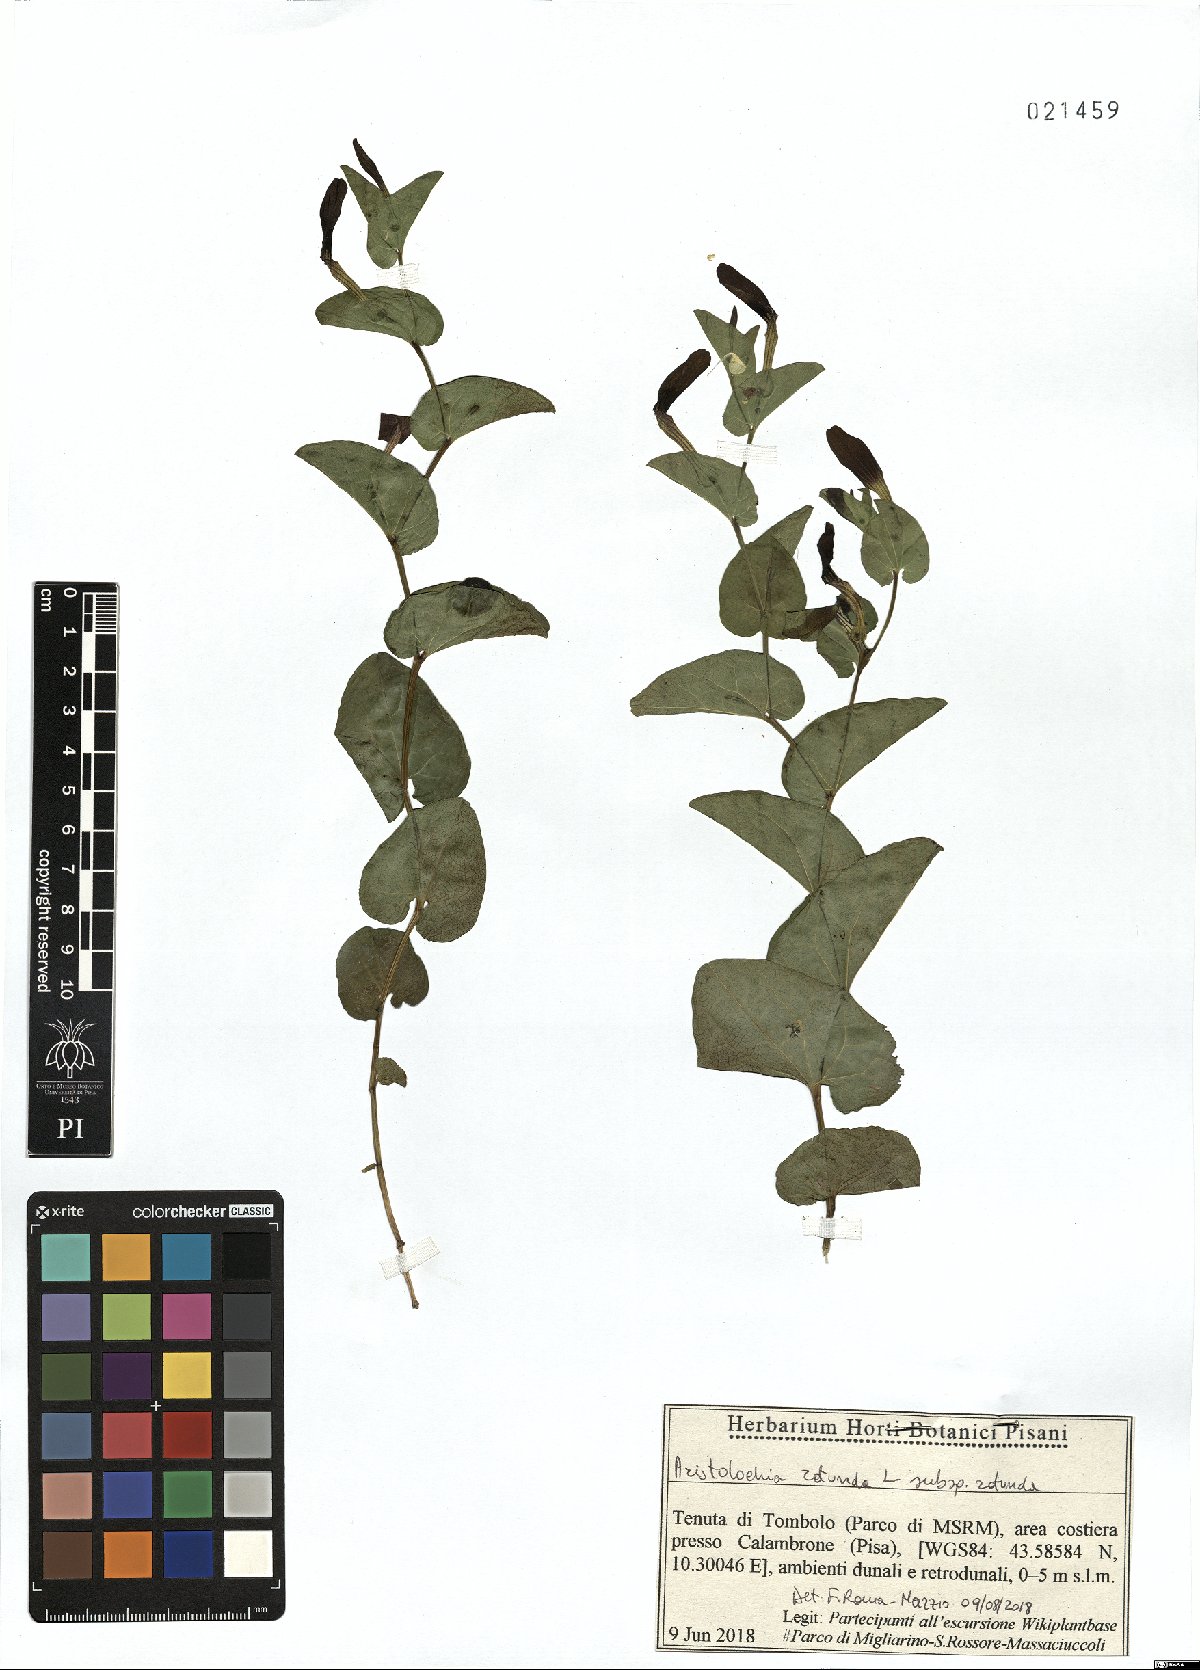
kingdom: Plantae
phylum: Tracheophyta
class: Magnoliopsida
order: Piperales
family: Aristolochiaceae
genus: Aristolochia
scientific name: Aristolochia rotunda
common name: Smearwort
